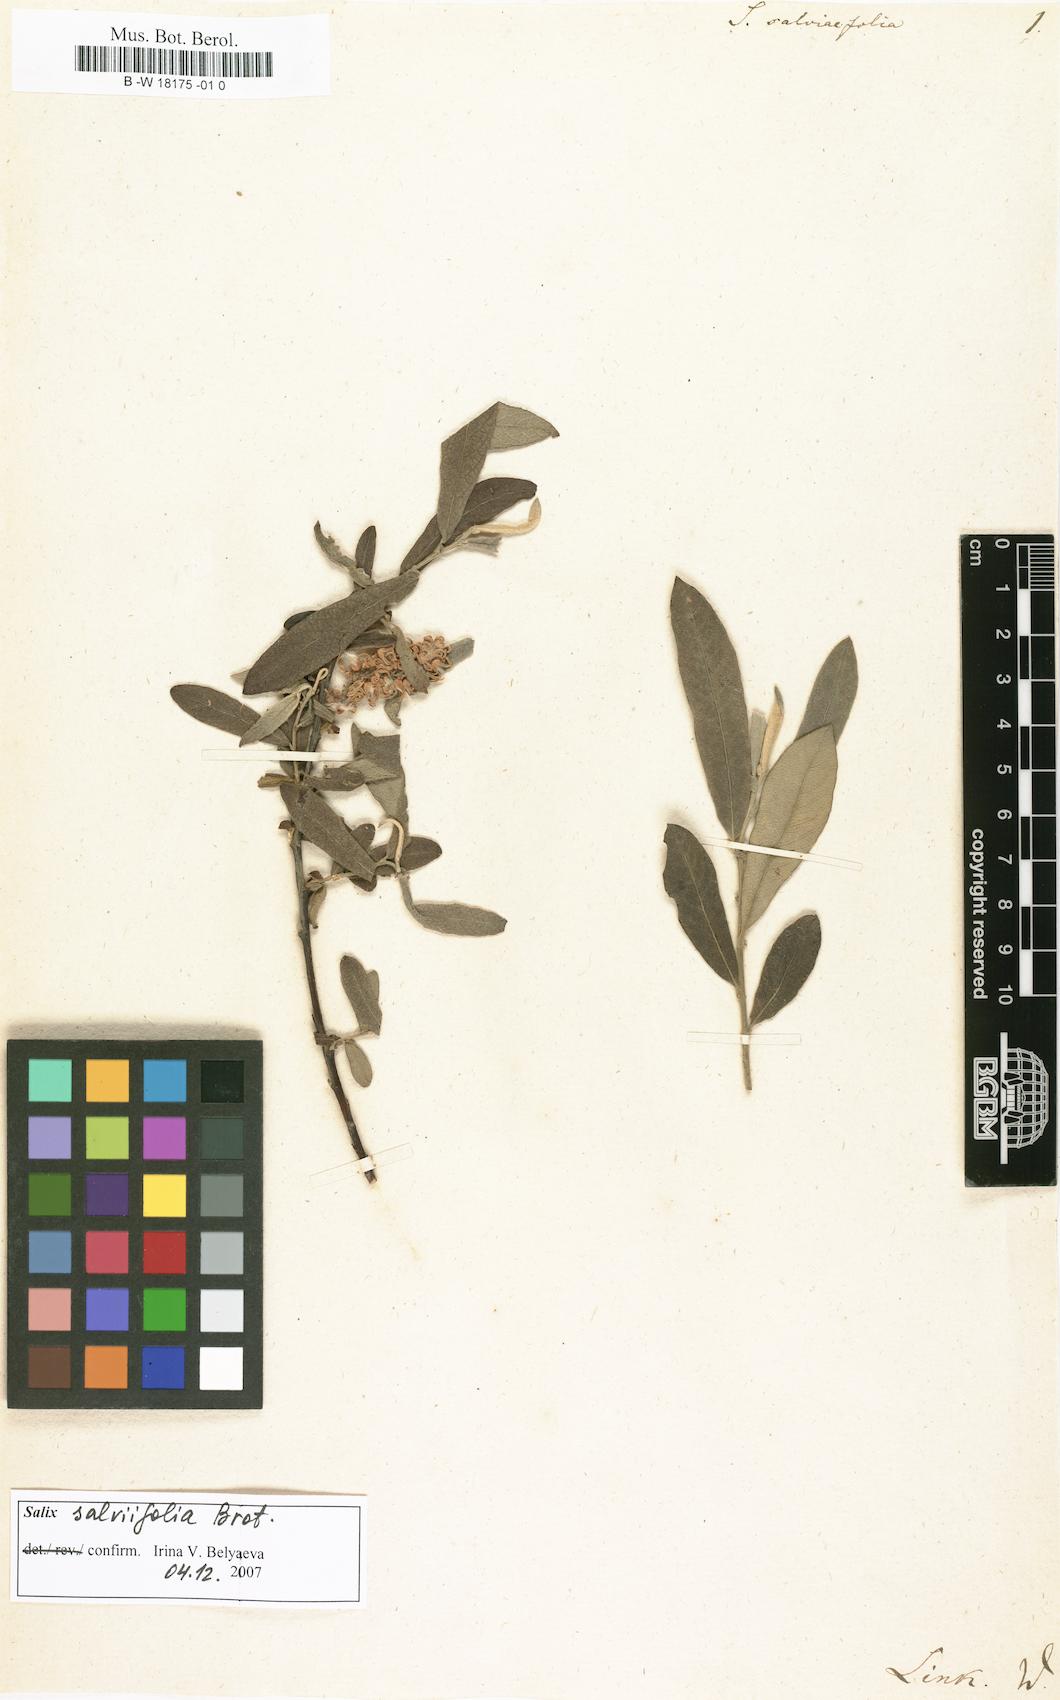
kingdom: Plantae
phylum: Tracheophyta
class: Magnoliopsida
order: Malpighiales
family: Salicaceae
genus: Salix
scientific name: Salix salviaefolia
